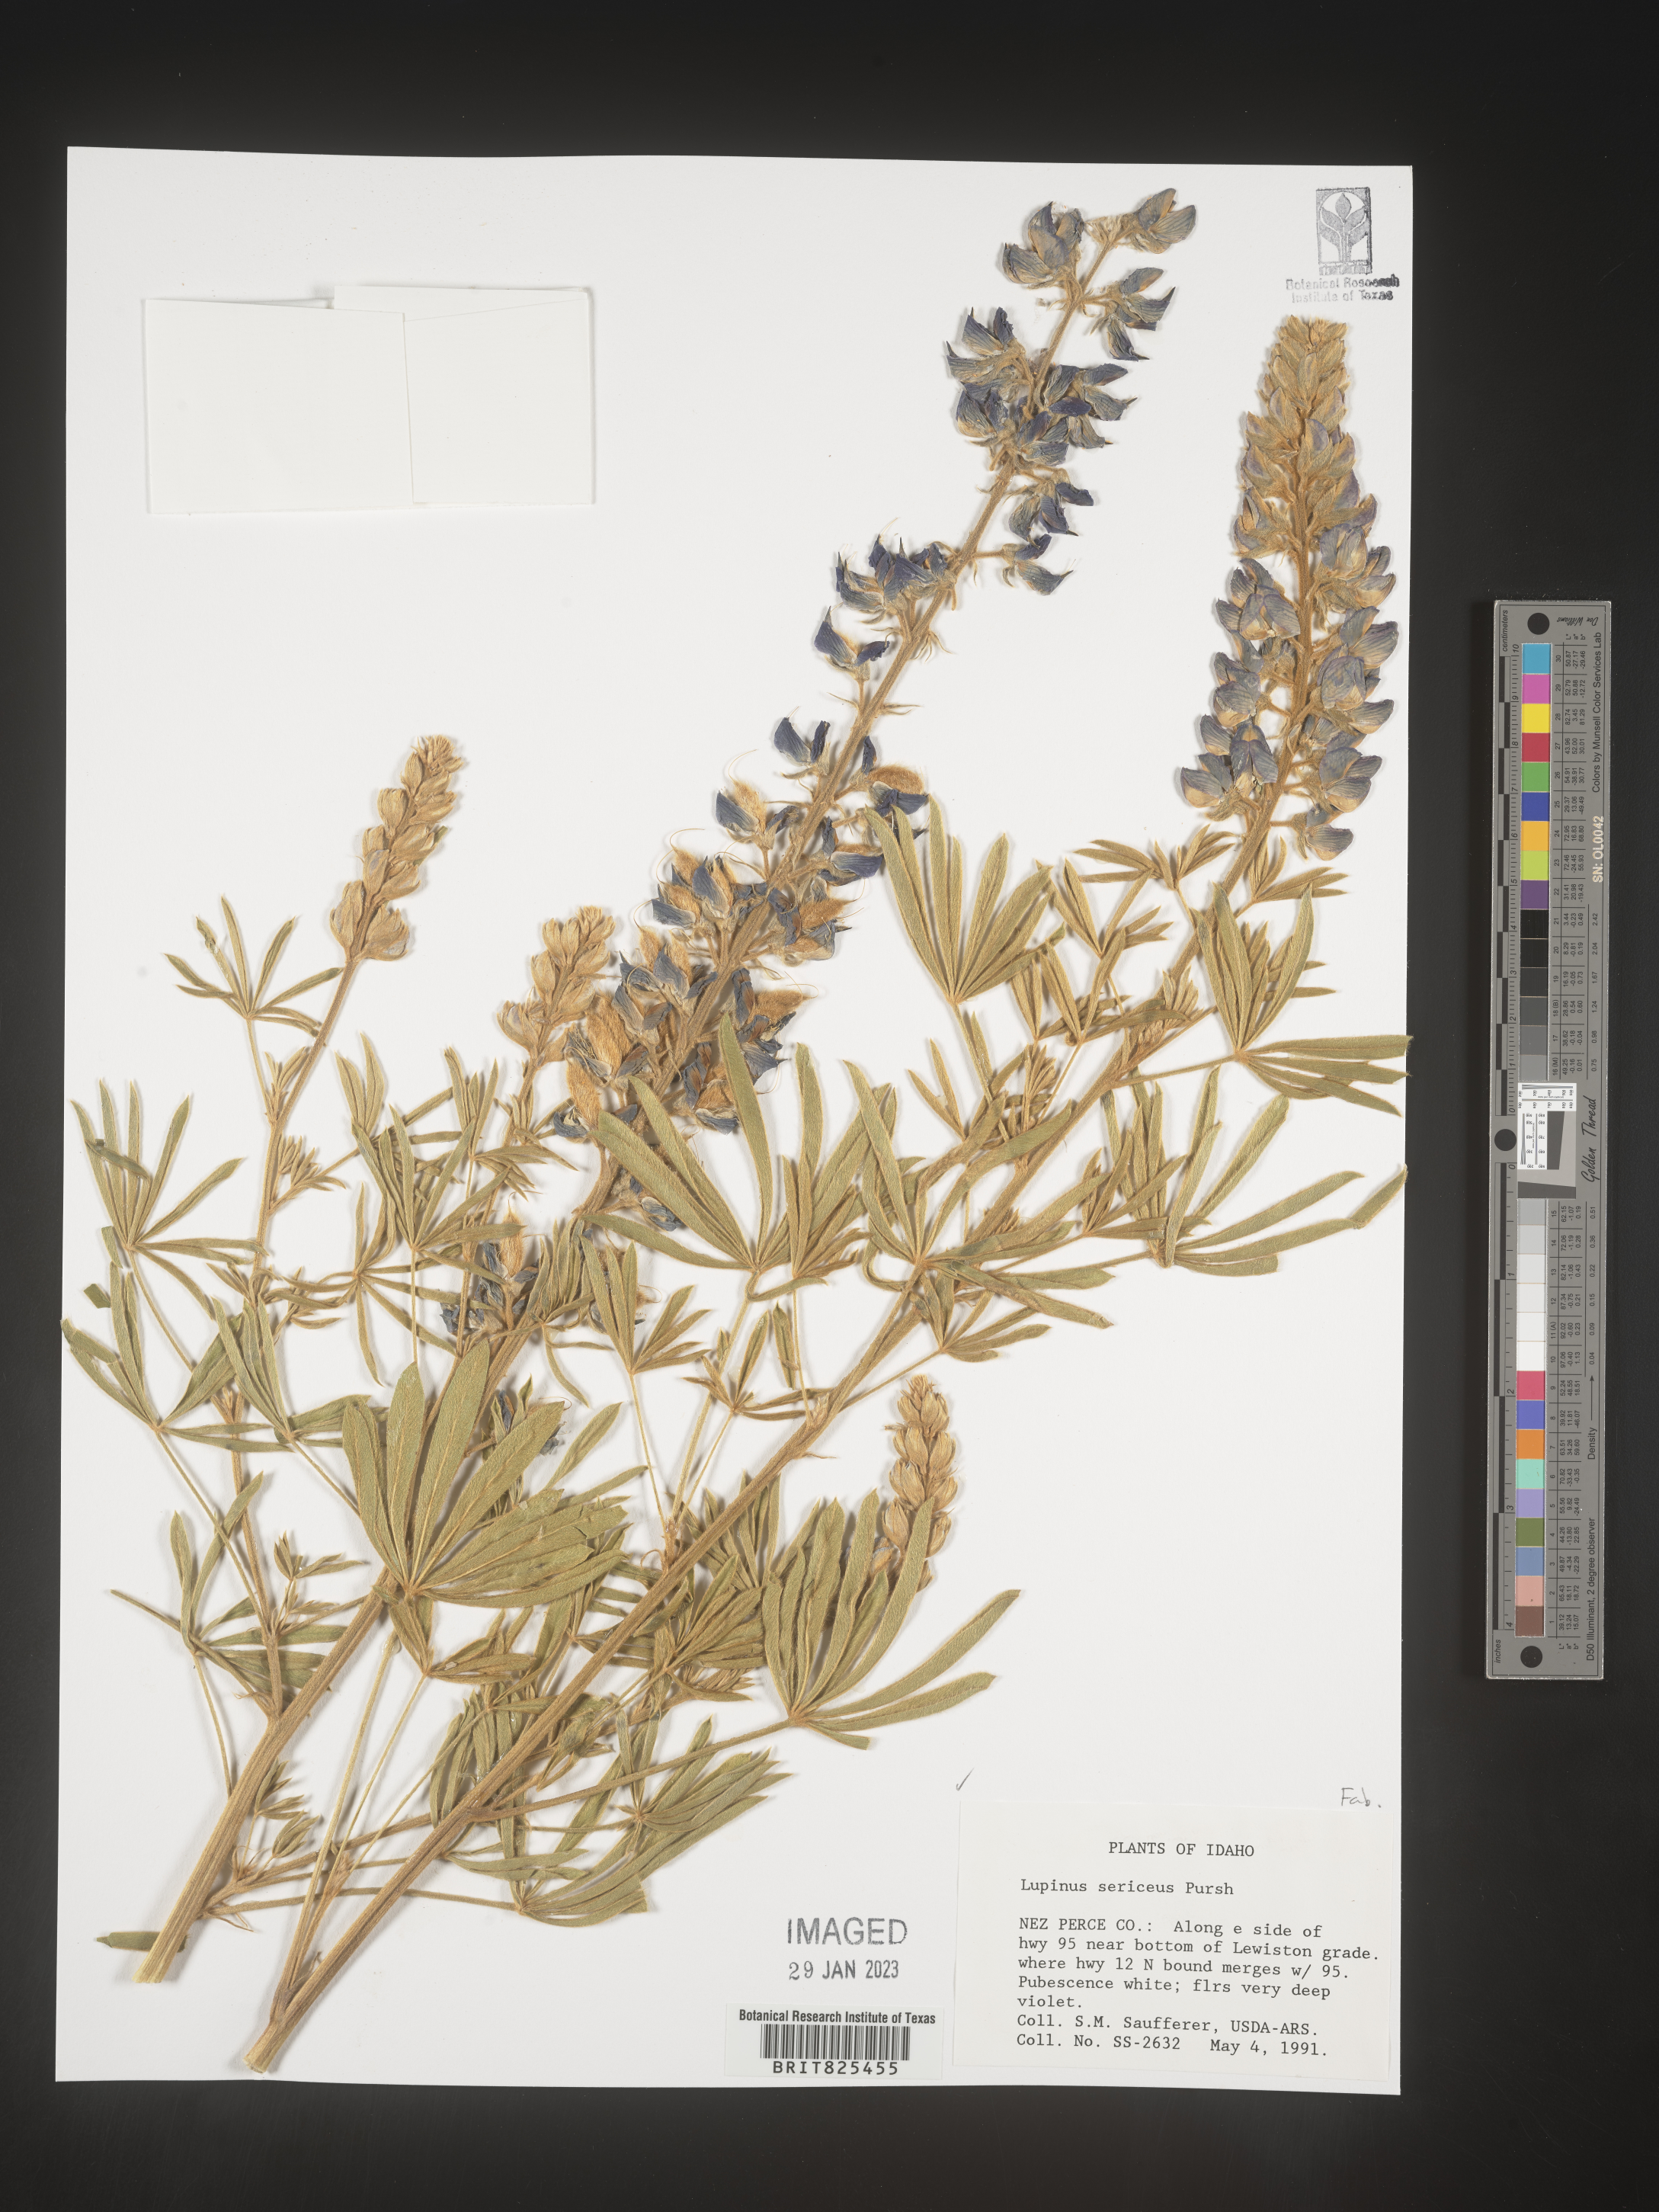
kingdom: Plantae
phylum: Tracheophyta
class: Magnoliopsida
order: Fabales
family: Fabaceae
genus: Lupinus
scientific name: Lupinus sericeus
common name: Silky lupine
